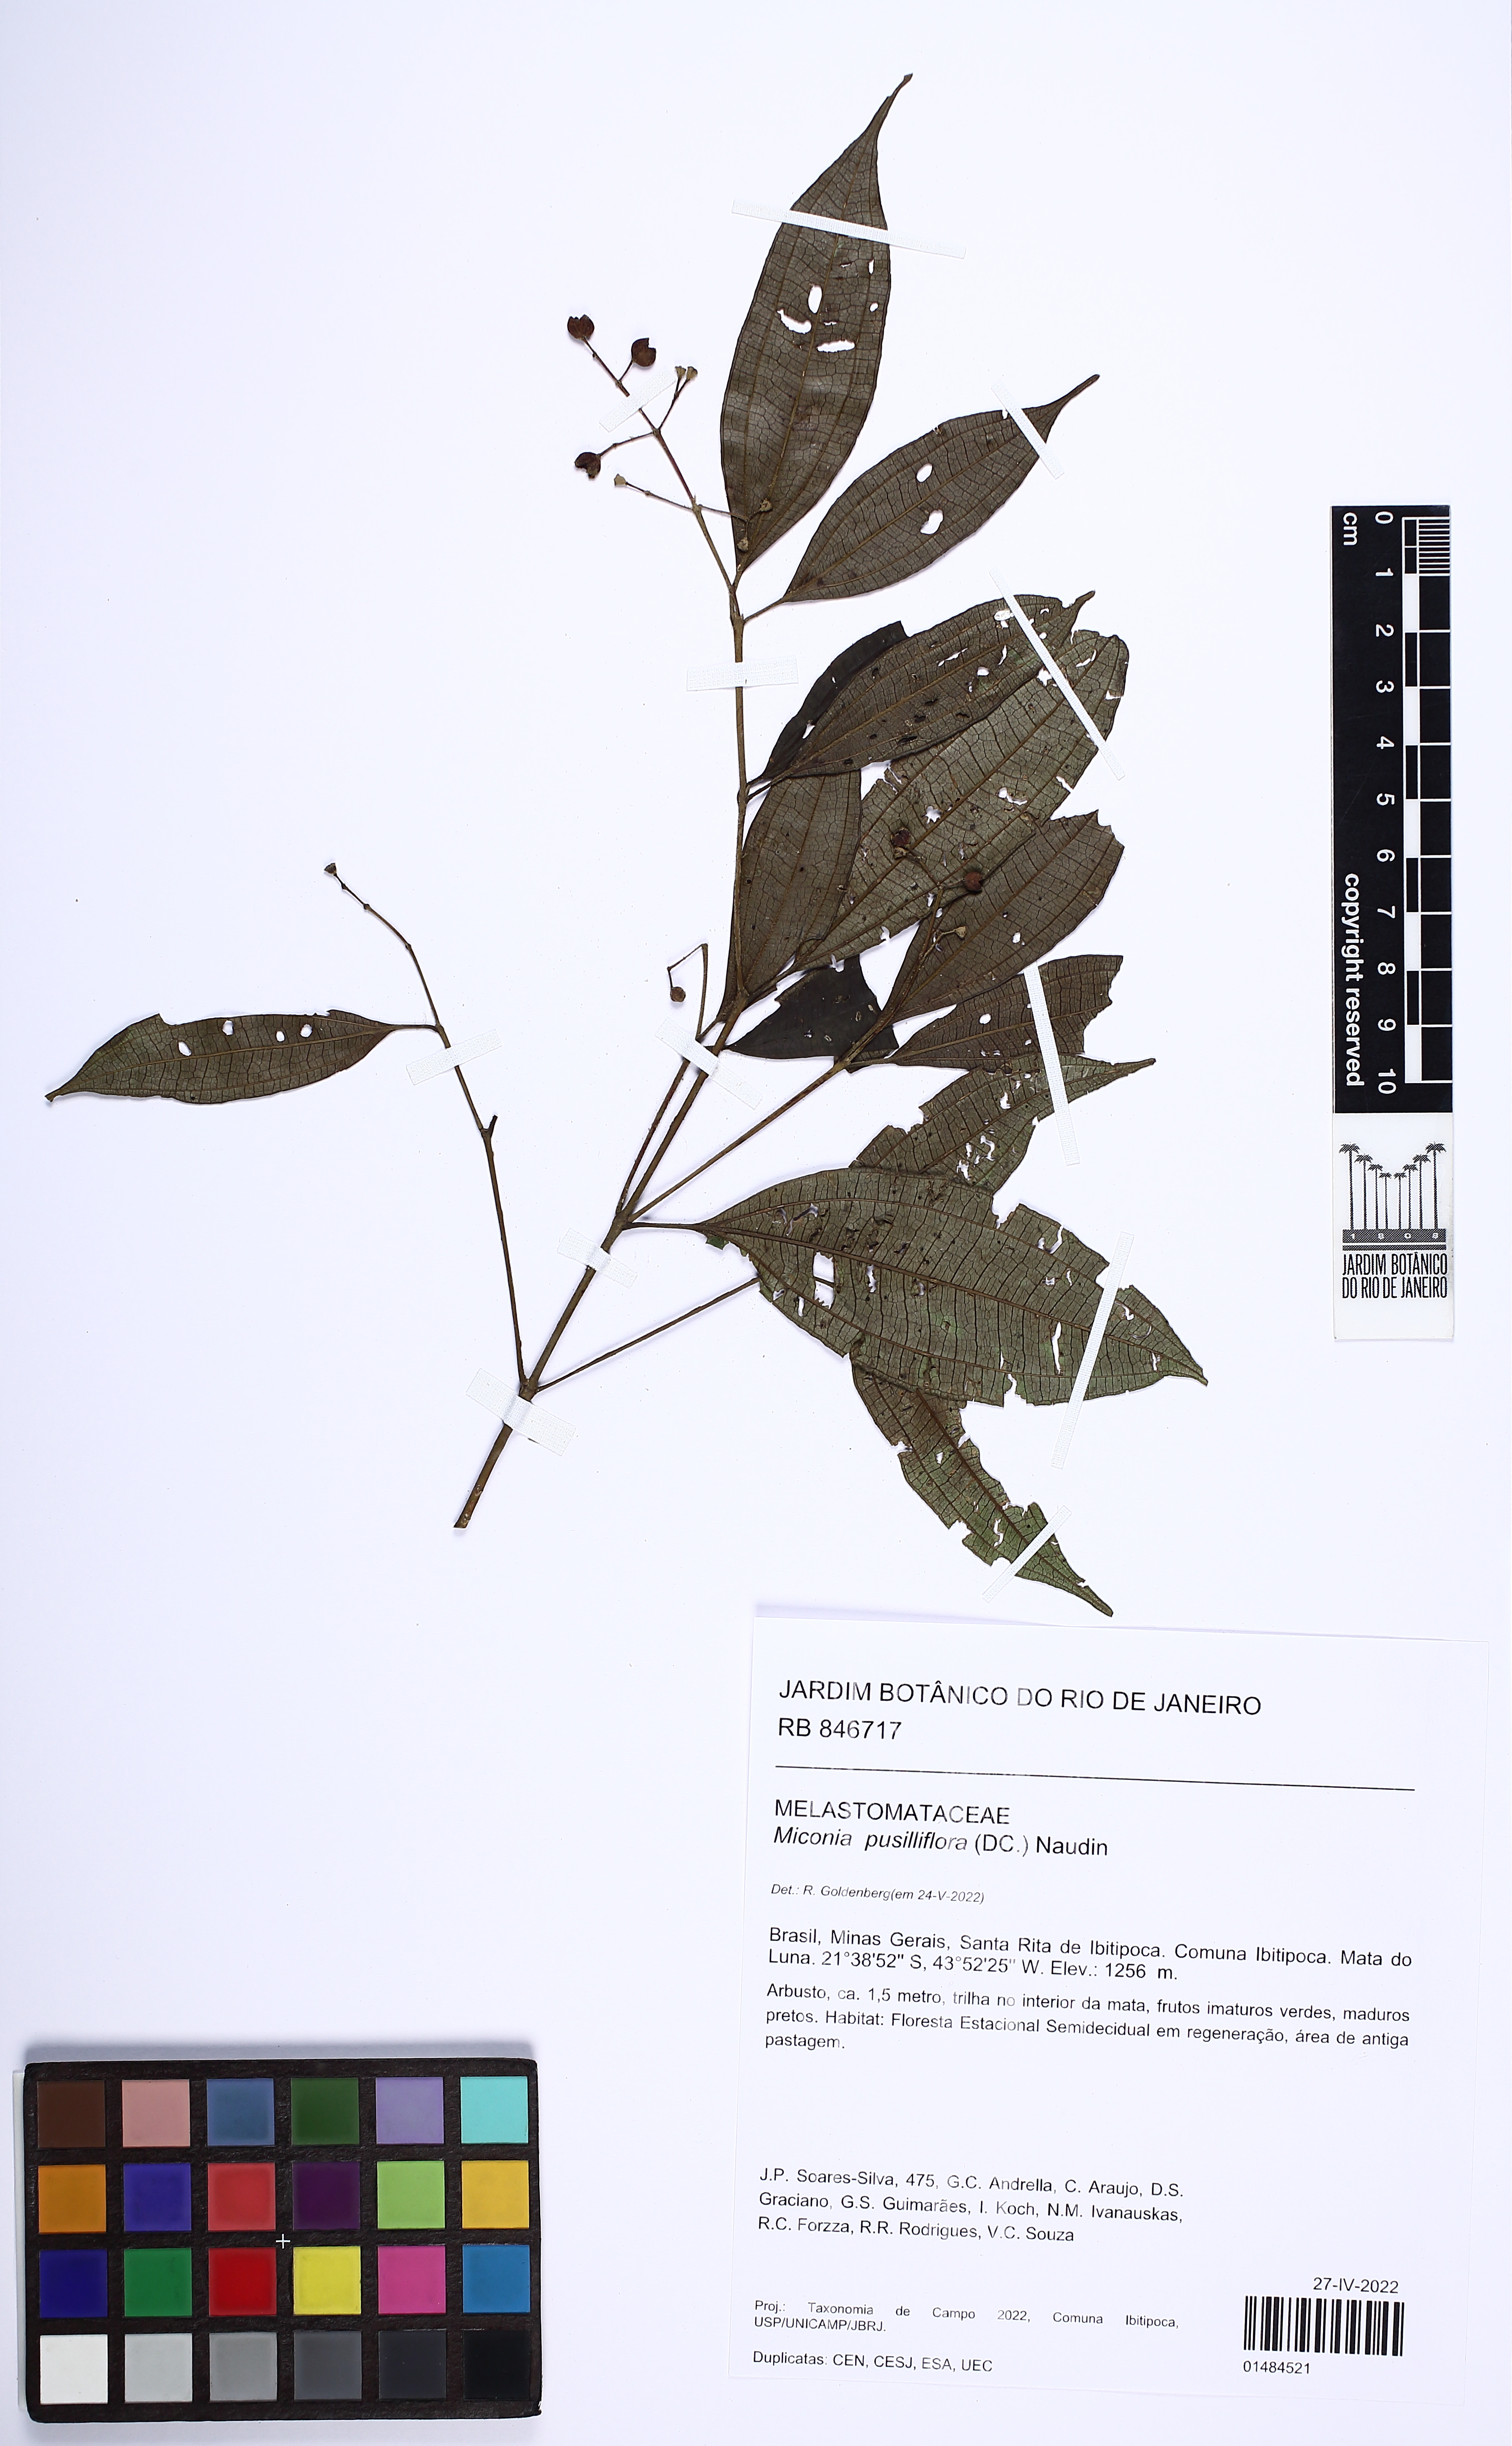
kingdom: Plantae
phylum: Tracheophyta
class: Magnoliopsida
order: Myrtales
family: Melastomataceae
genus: Miconia
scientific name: Miconia pusilliflora
